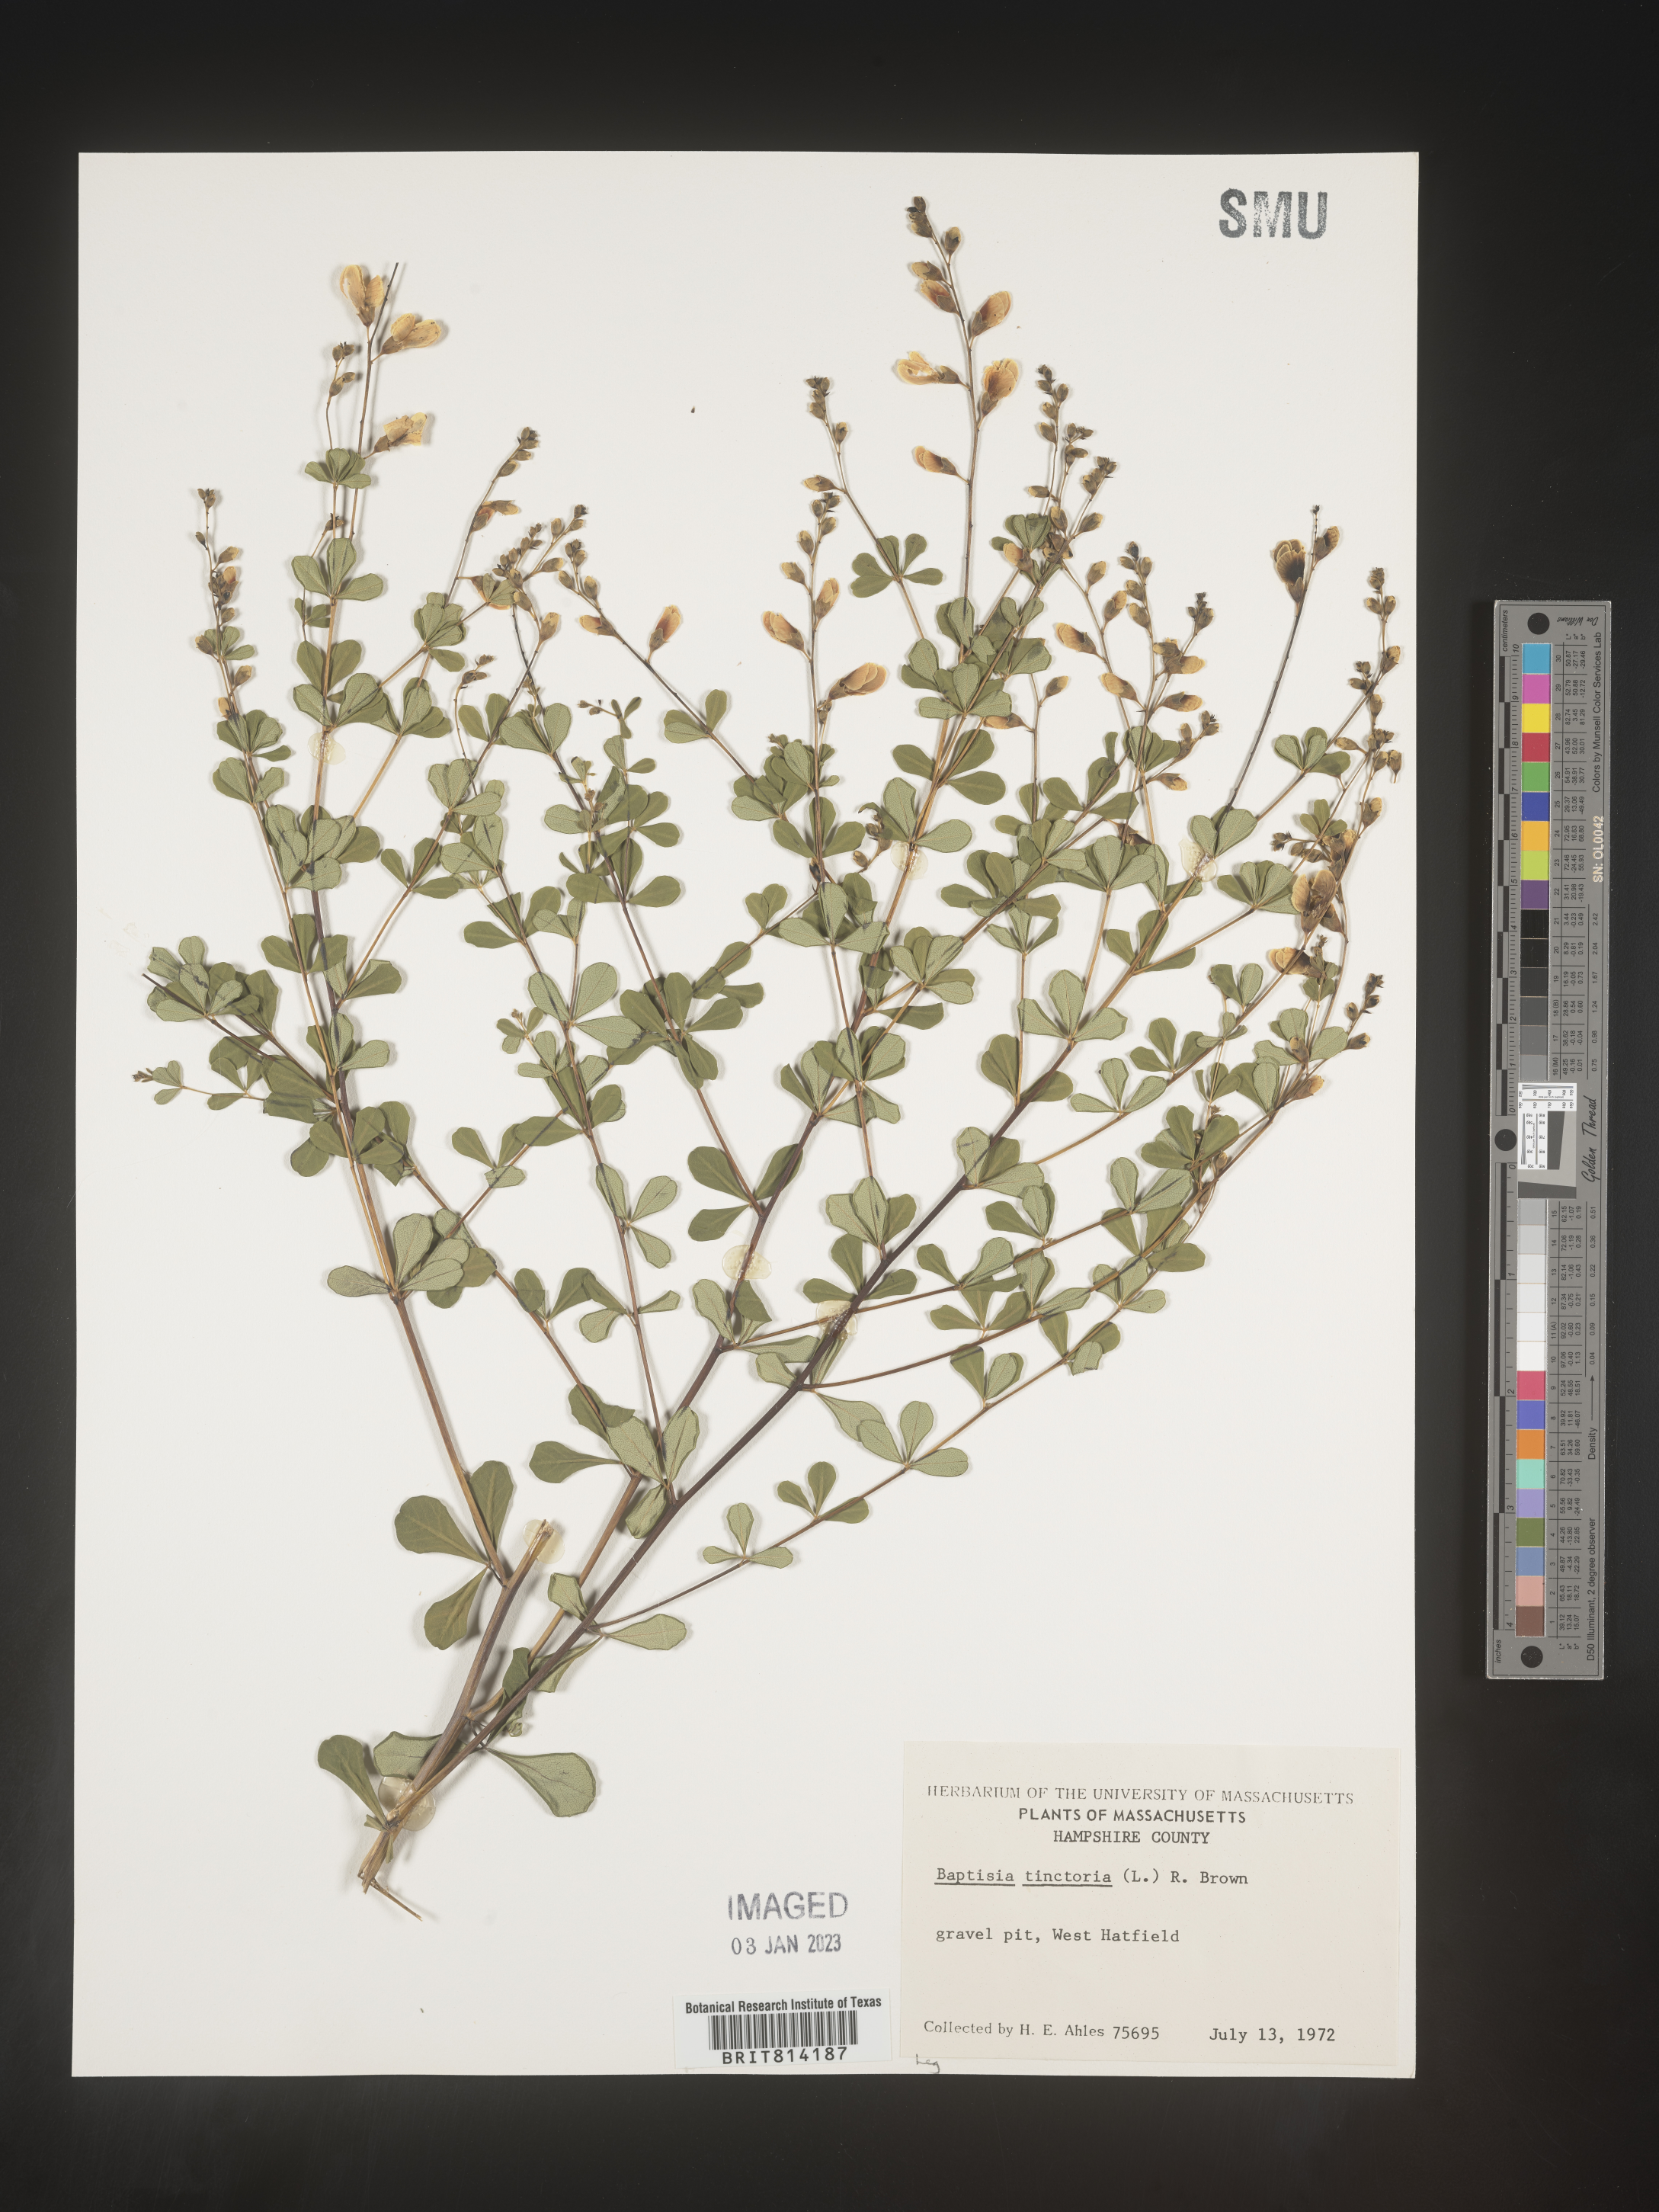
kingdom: Plantae
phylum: Tracheophyta
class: Magnoliopsida
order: Fabales
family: Fabaceae
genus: Baptisia
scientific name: Baptisia tinctoria
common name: Wild indigo
